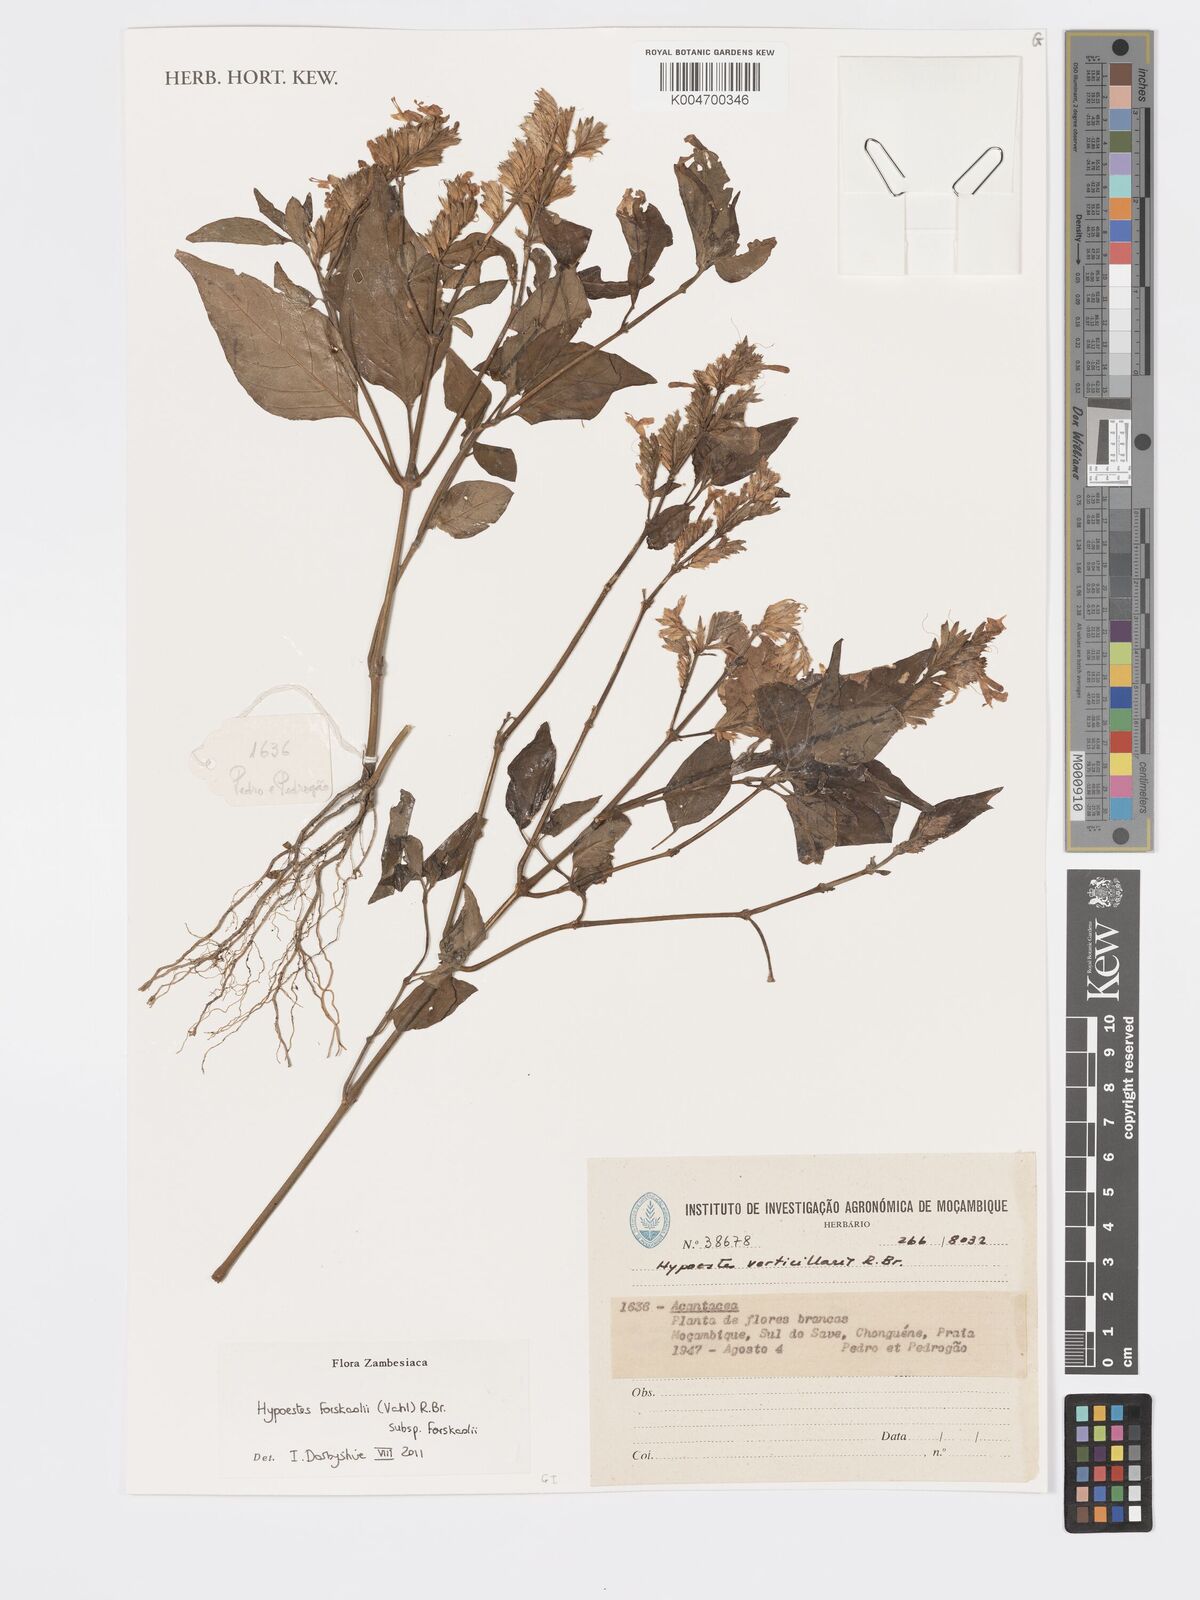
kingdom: Plantae
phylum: Tracheophyta
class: Magnoliopsida
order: Lamiales
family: Acanthaceae
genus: Hypoestes
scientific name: Hypoestes forskaolii
